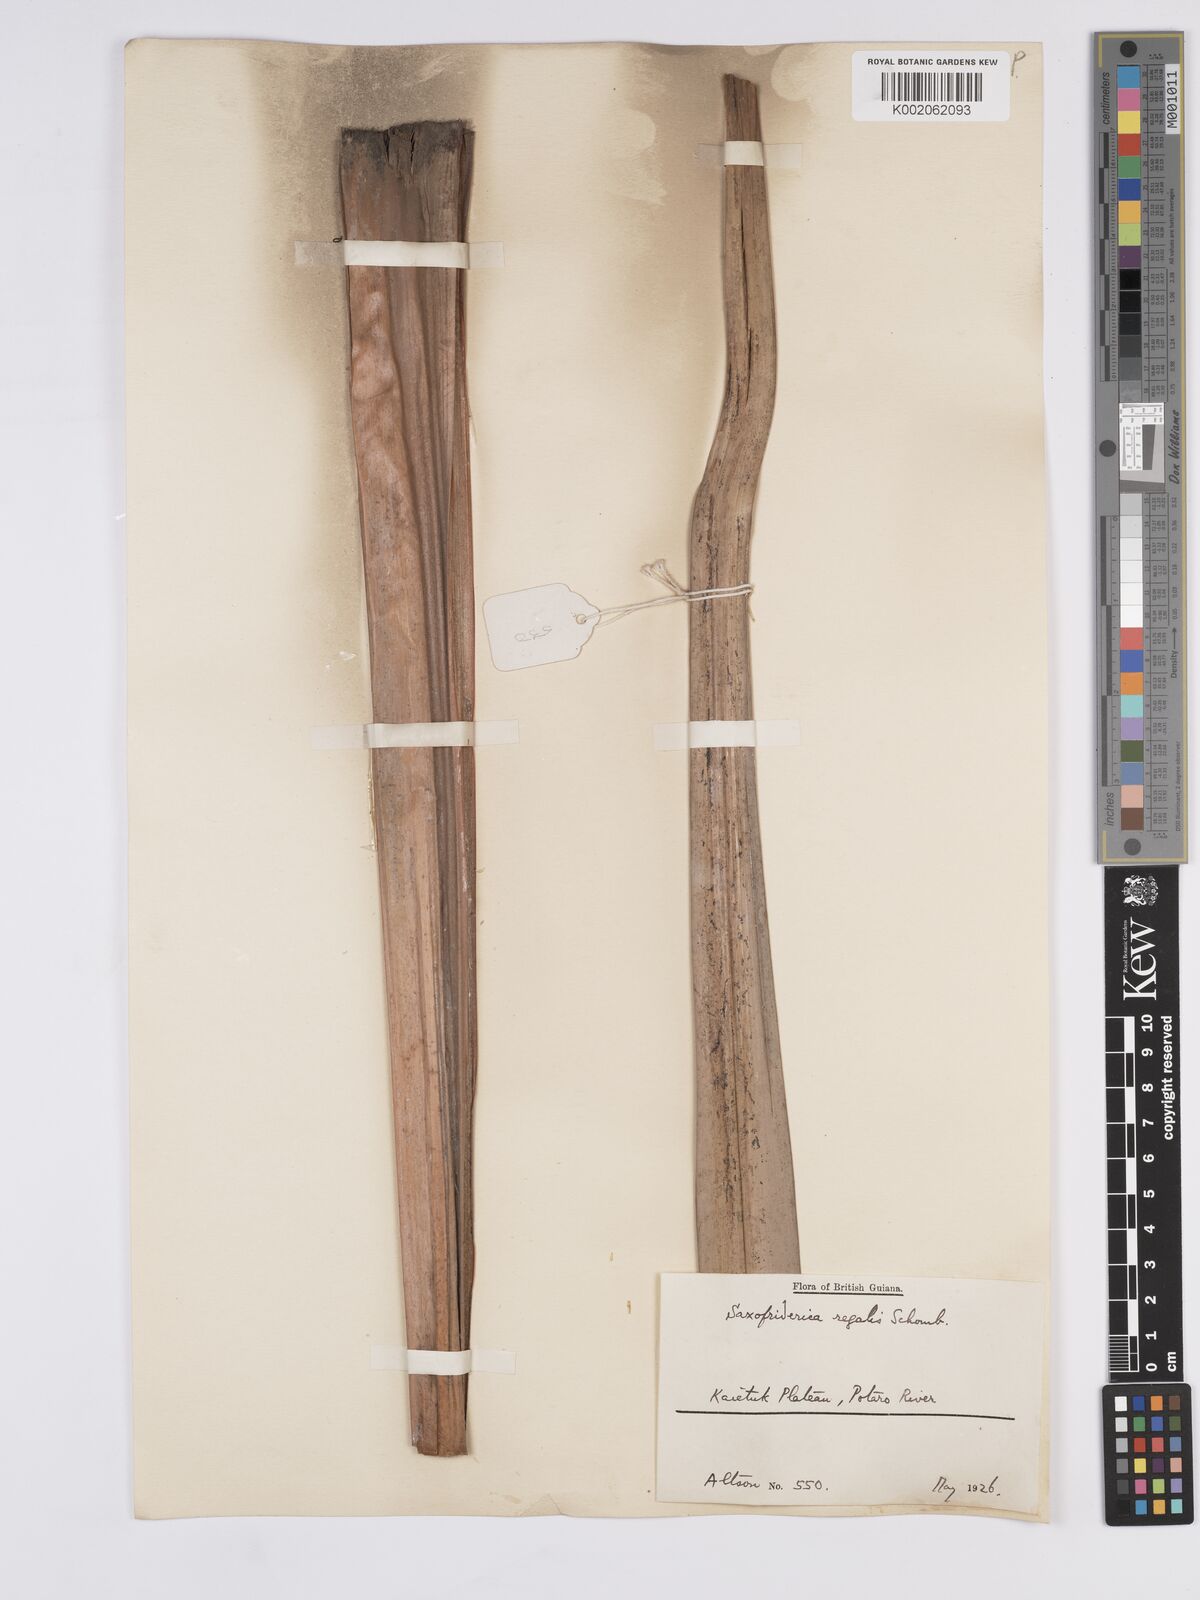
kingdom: Plantae
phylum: Tracheophyta
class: Liliopsida
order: Poales
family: Rapateaceae
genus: Saxofridericia
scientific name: Saxofridericia regalis
